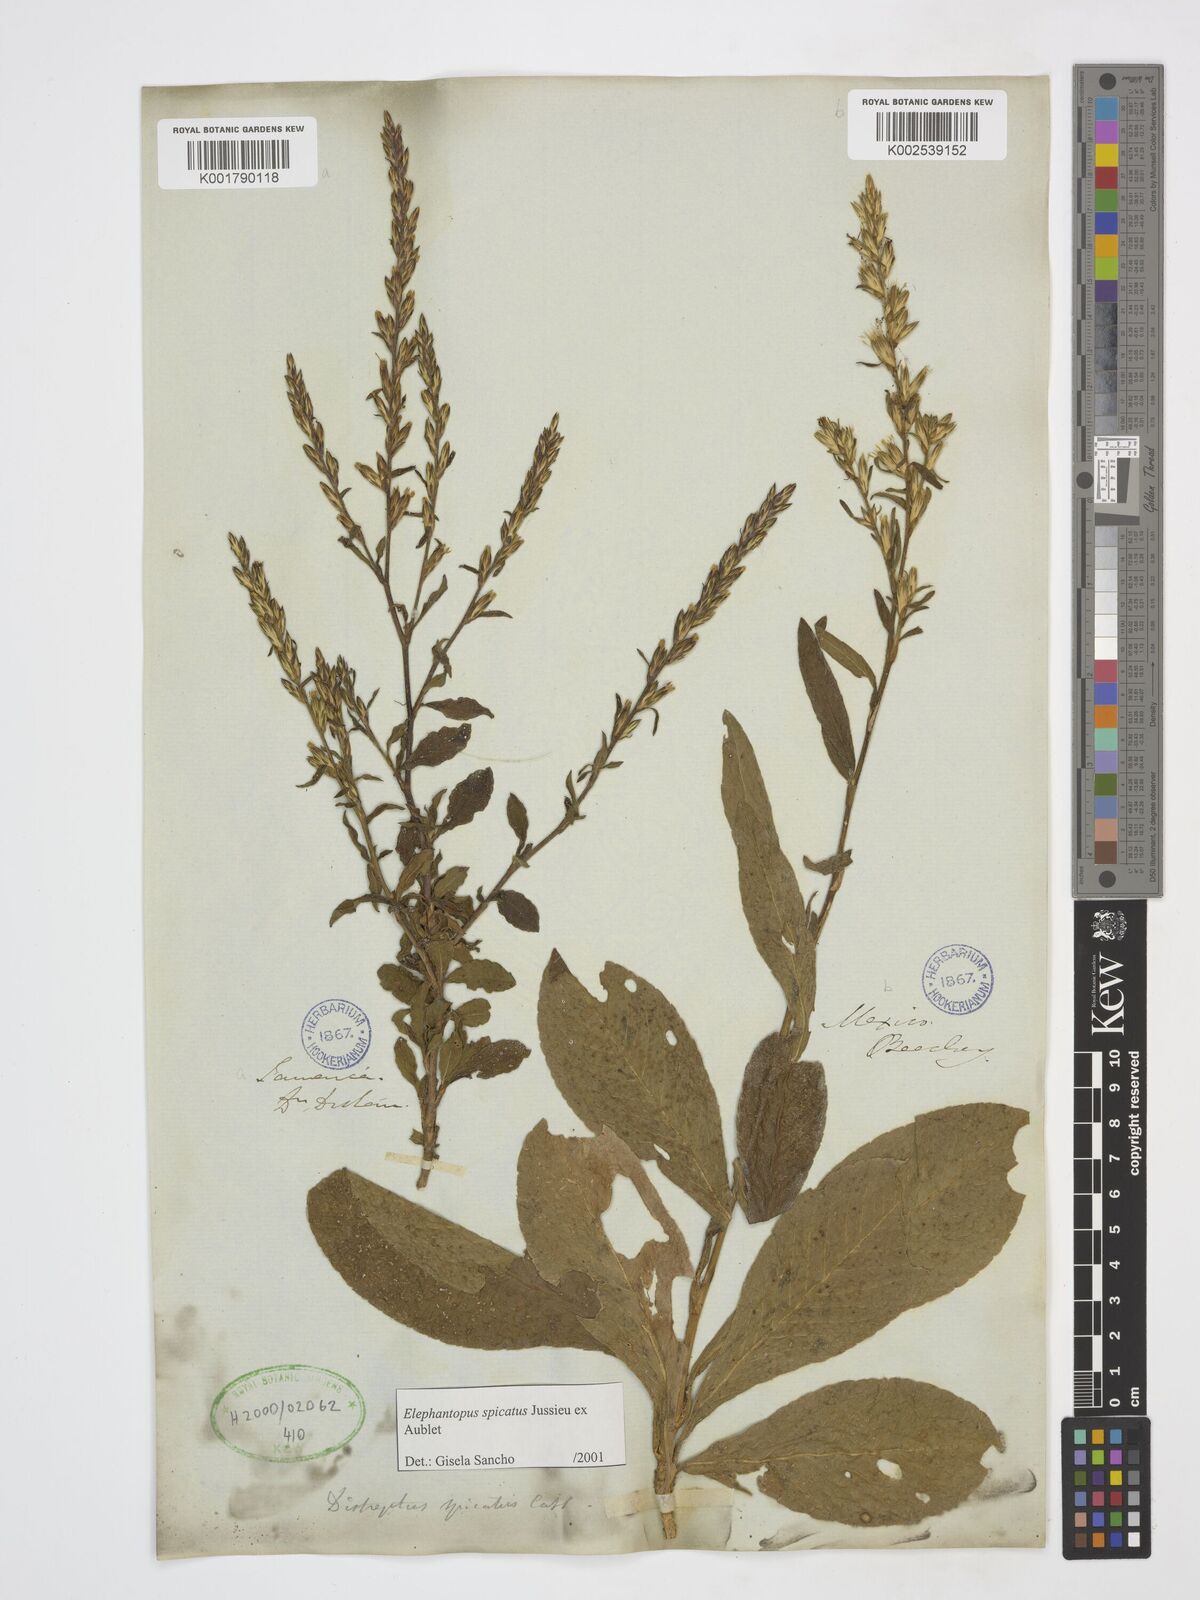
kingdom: Plantae
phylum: Tracheophyta
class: Magnoliopsida
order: Asterales
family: Asteraceae
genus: Pseudelephantopus
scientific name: Pseudelephantopus spicatus
